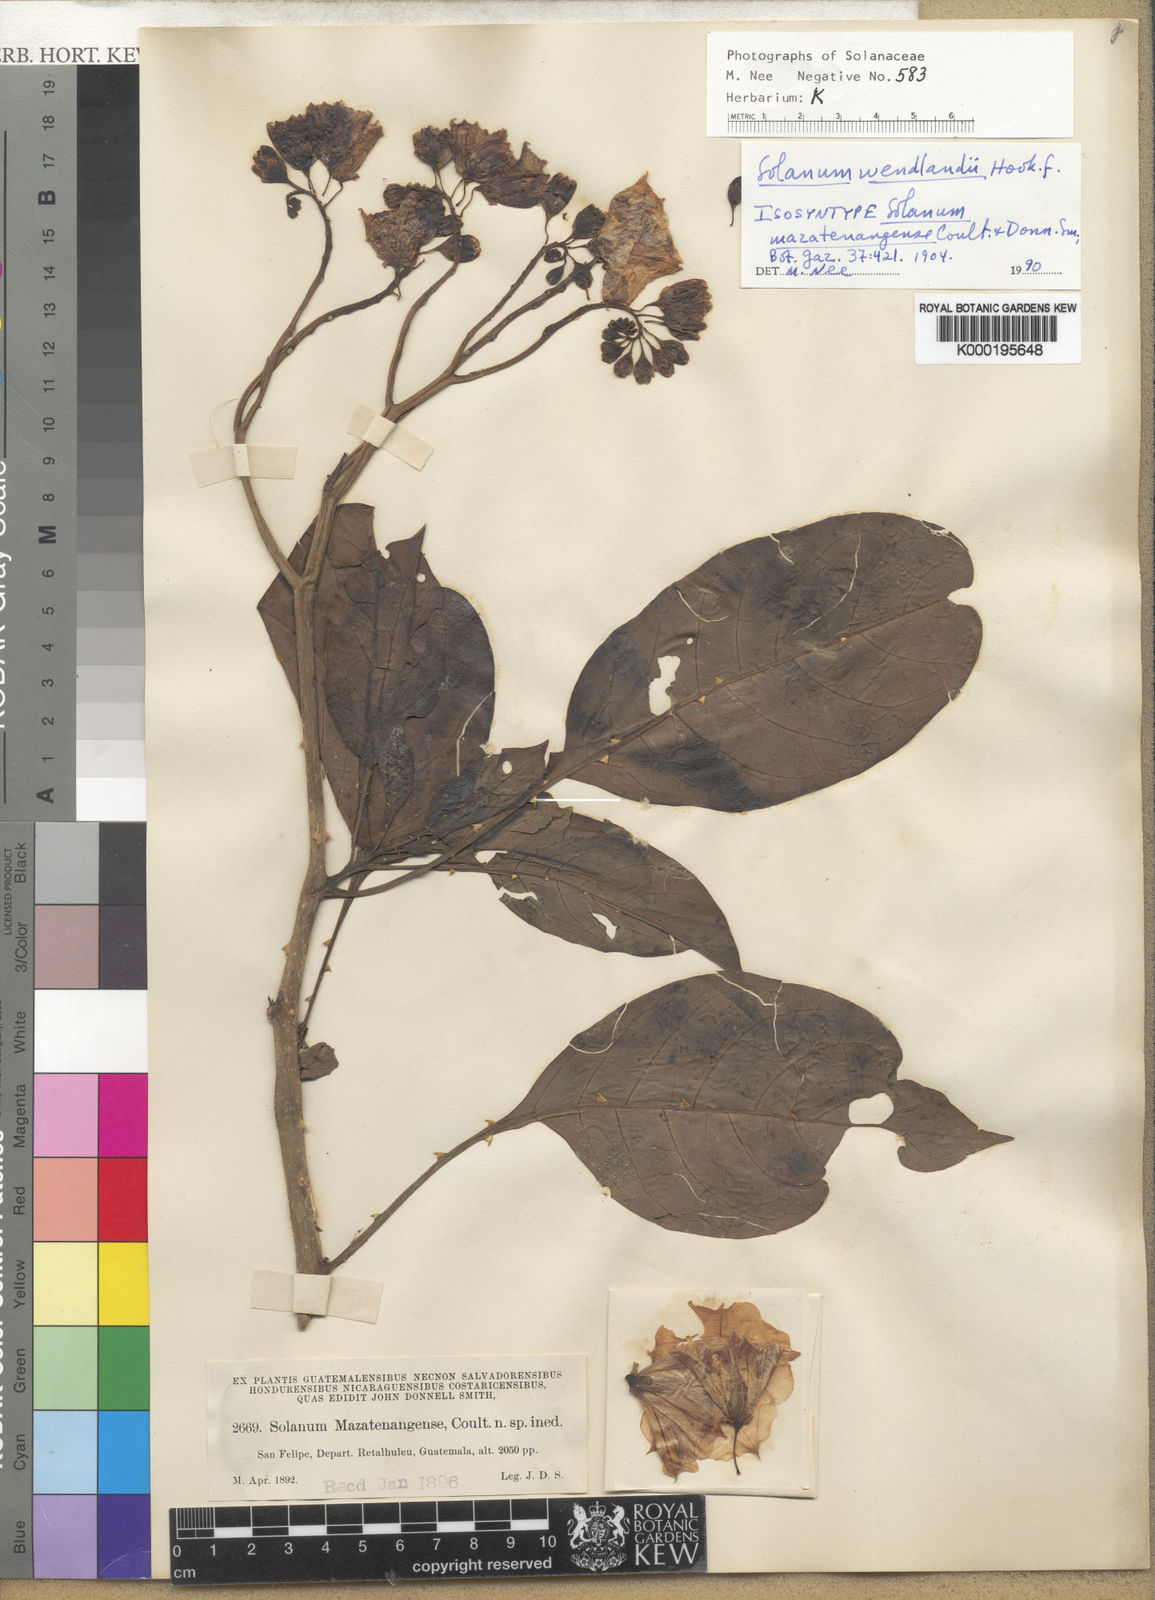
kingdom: Plantae
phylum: Tracheophyta
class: Magnoliopsida
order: Solanales
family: Solanaceae
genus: Solanum
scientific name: Solanum wendlandii
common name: Costa rican nightshade
